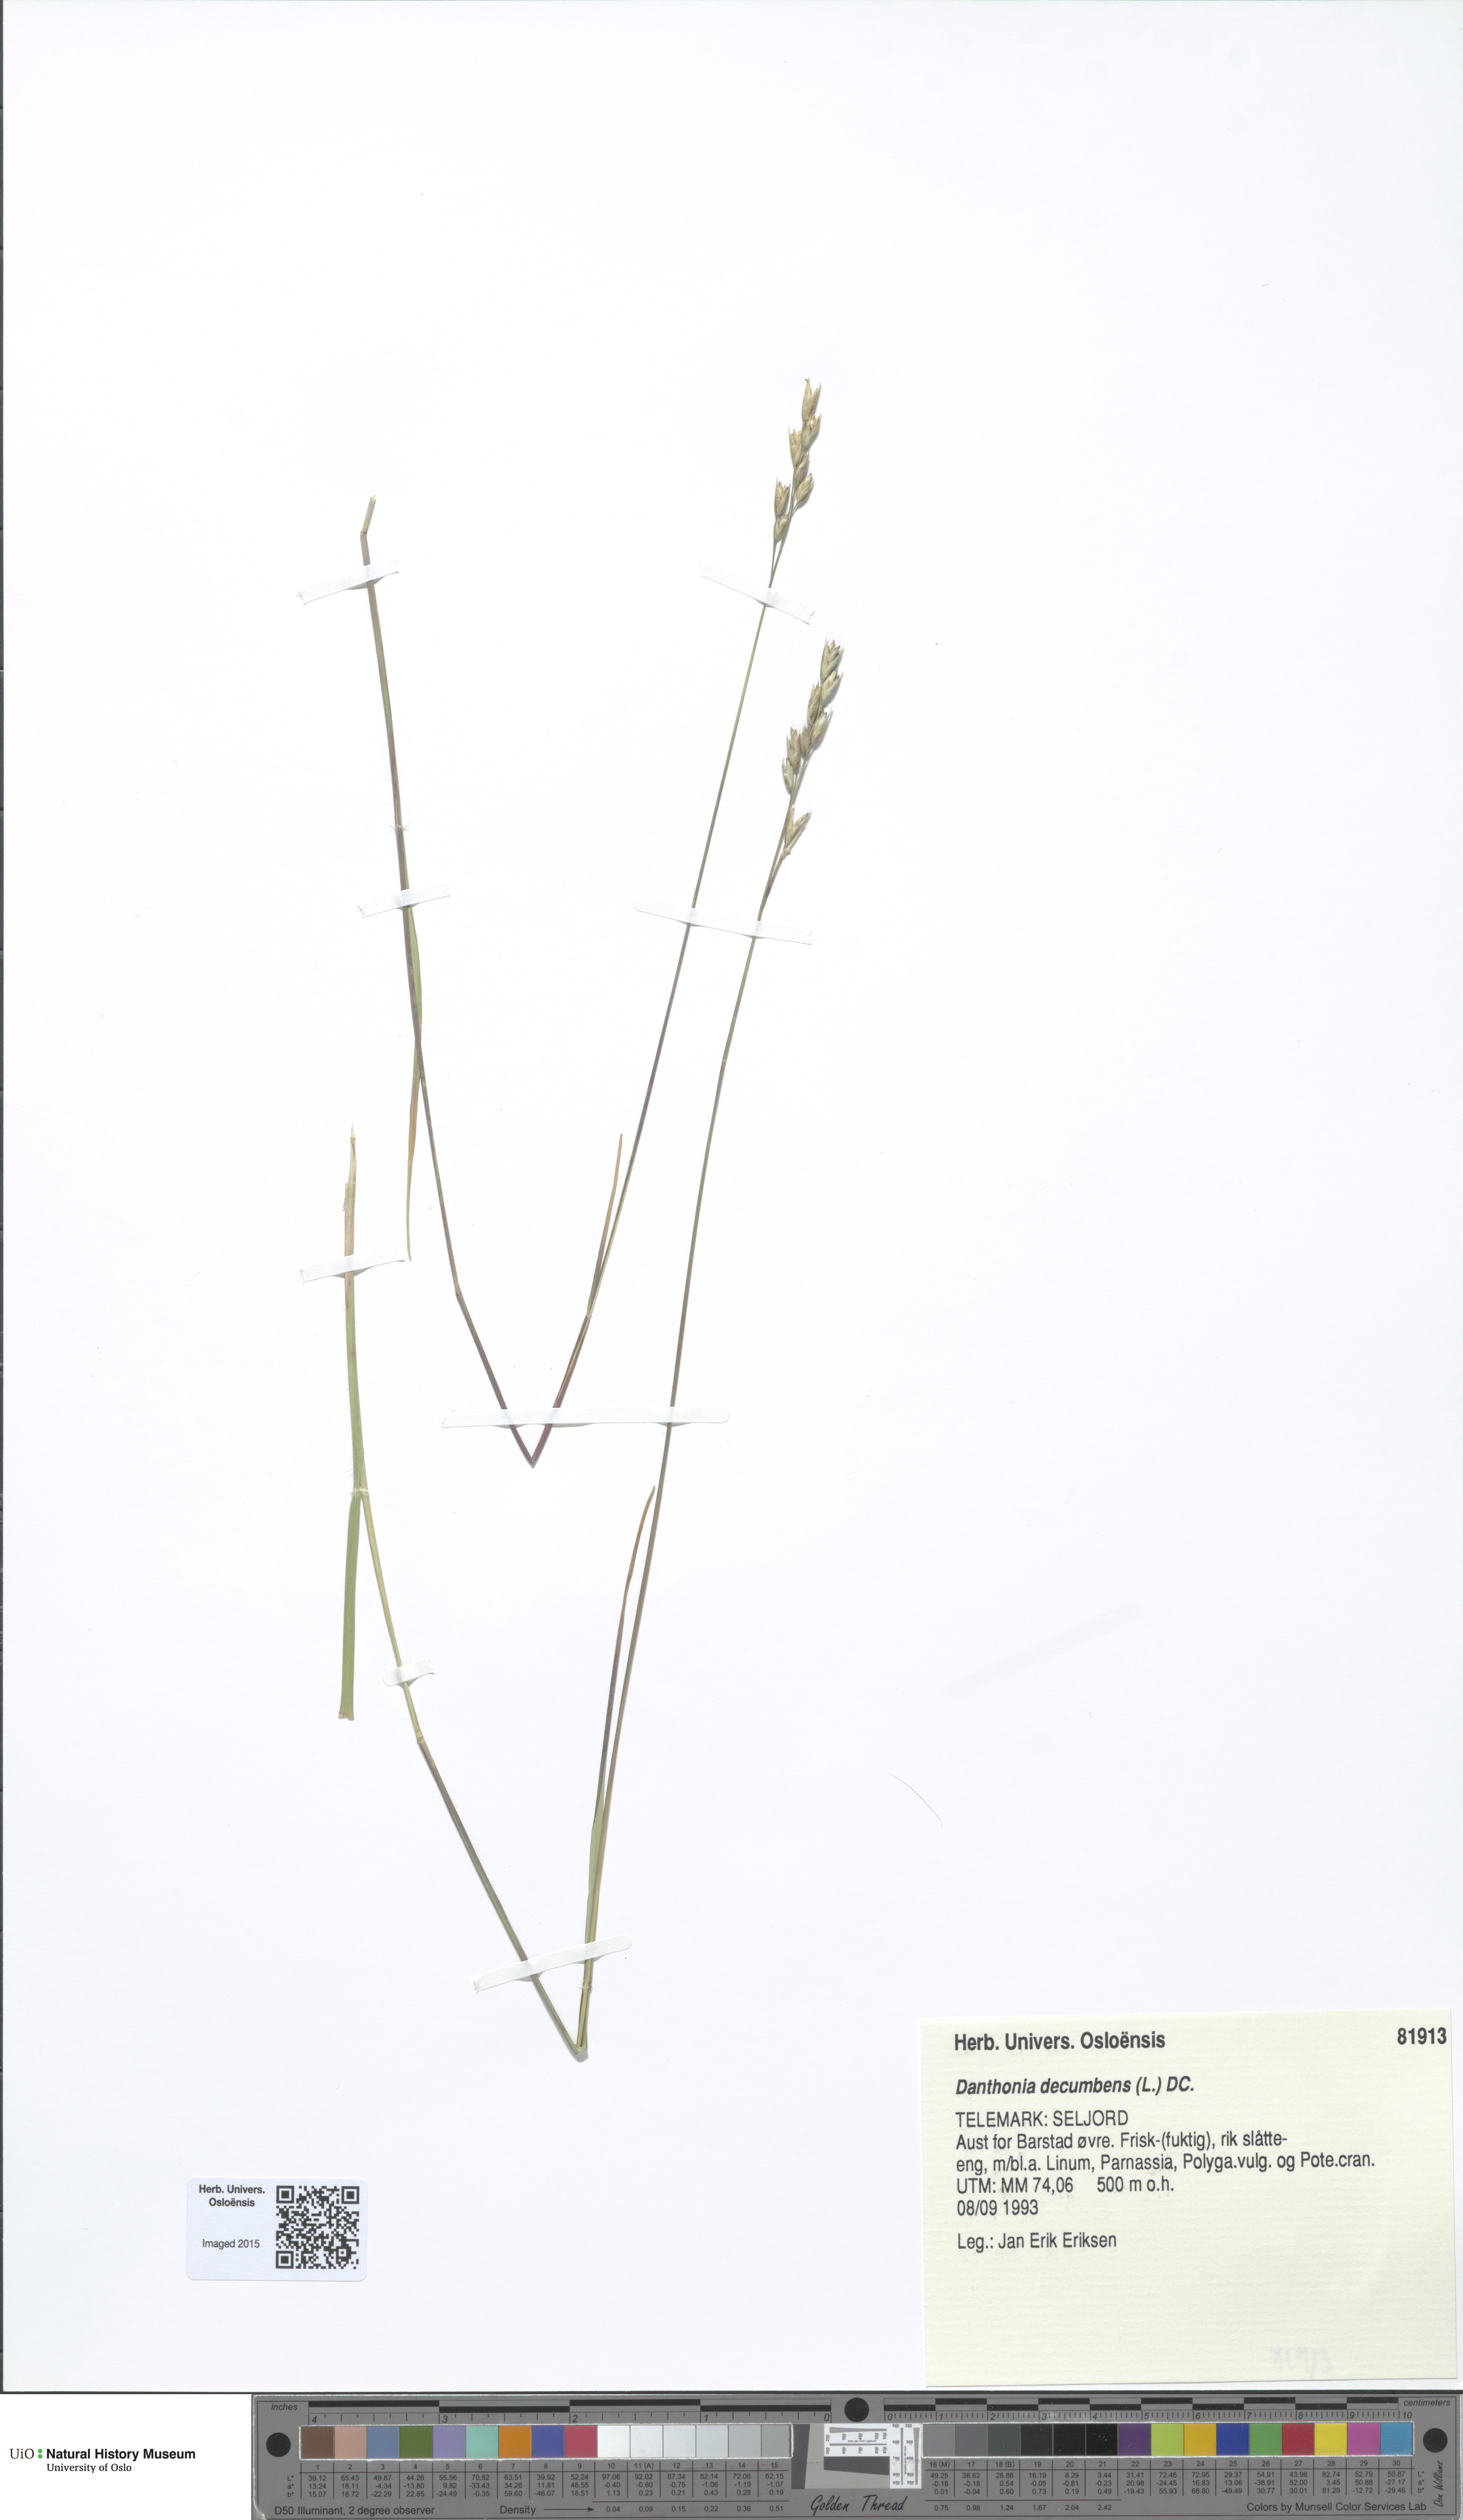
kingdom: Plantae
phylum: Tracheophyta
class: Liliopsida
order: Poales
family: Poaceae
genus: Danthonia
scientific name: Danthonia decumbens
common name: Common heathgrass
